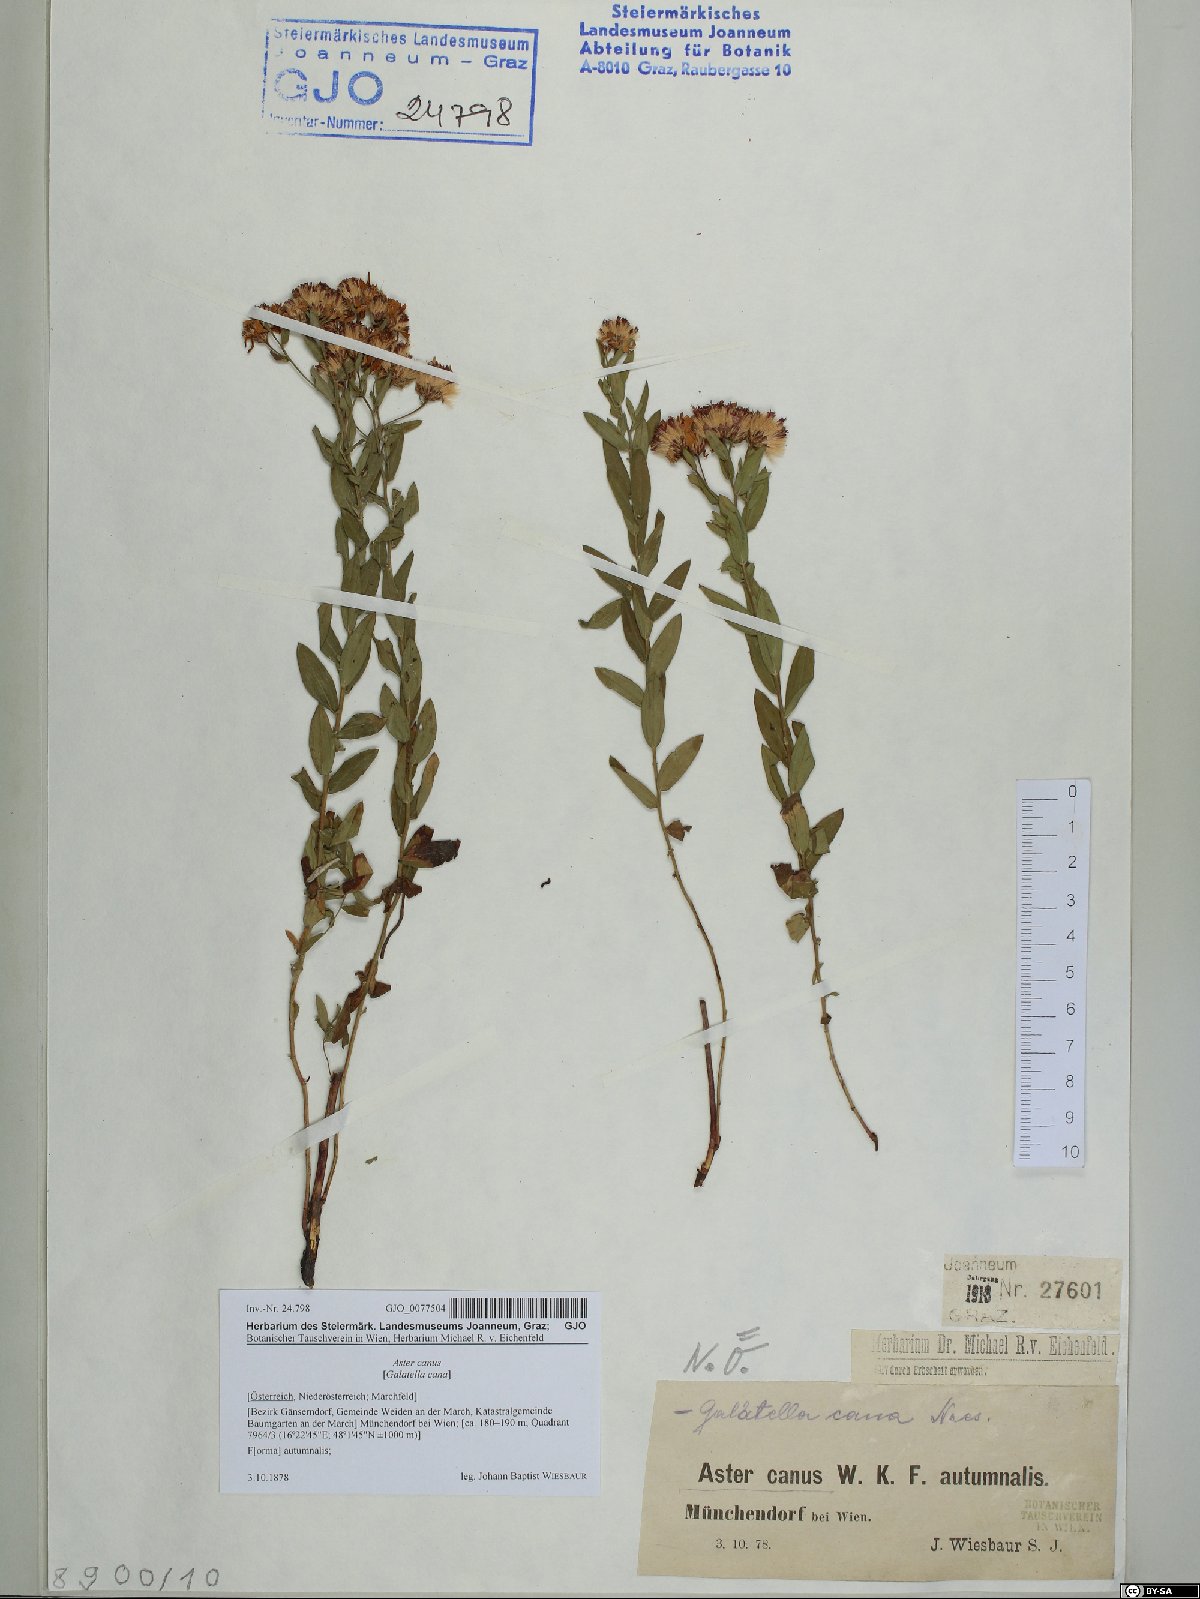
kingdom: Plantae
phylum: Tracheophyta
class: Magnoliopsida
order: Asterales
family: Asteraceae
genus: Galatella
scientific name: Galatella cana
